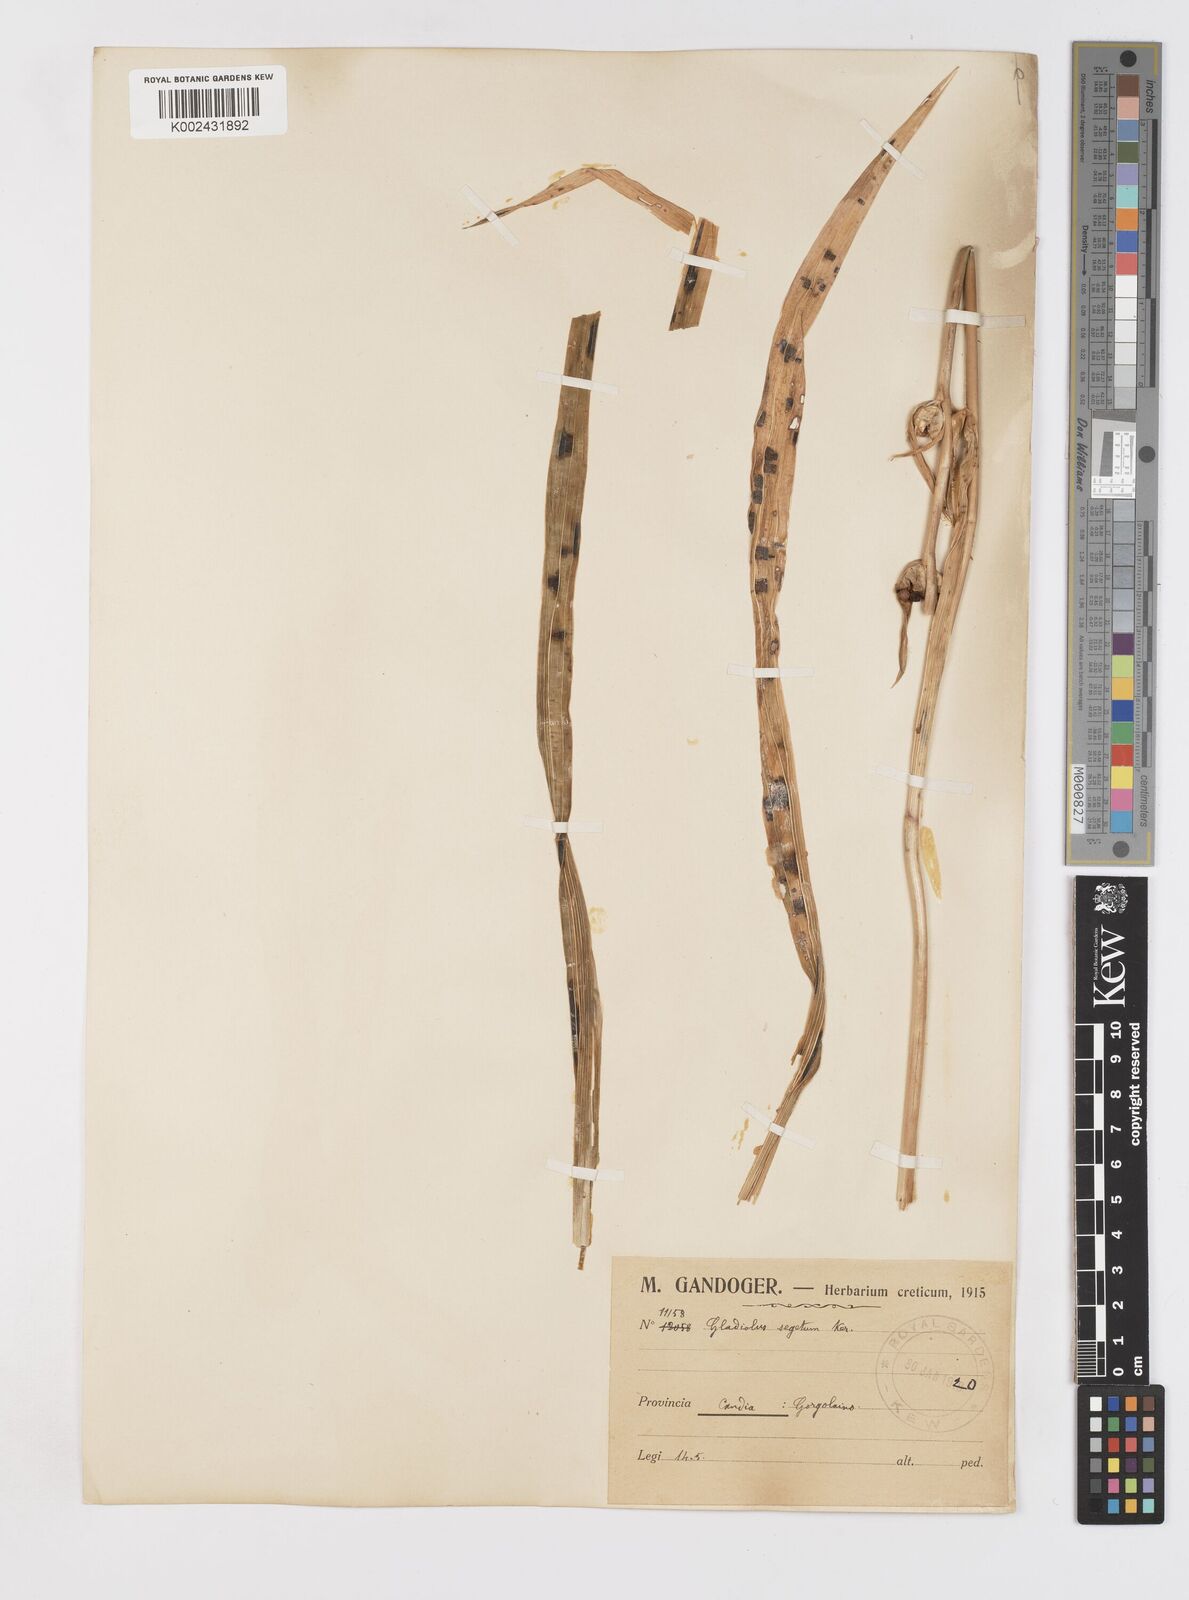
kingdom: Plantae
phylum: Tracheophyta
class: Liliopsida
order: Asparagales
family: Iridaceae
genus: Gladiolus
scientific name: Gladiolus italicus
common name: Field gladiolus
